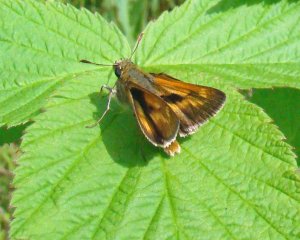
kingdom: Animalia
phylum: Arthropoda
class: Insecta
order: Lepidoptera
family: Hesperiidae
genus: Polites
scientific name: Polites
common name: Long Dash Skipper
